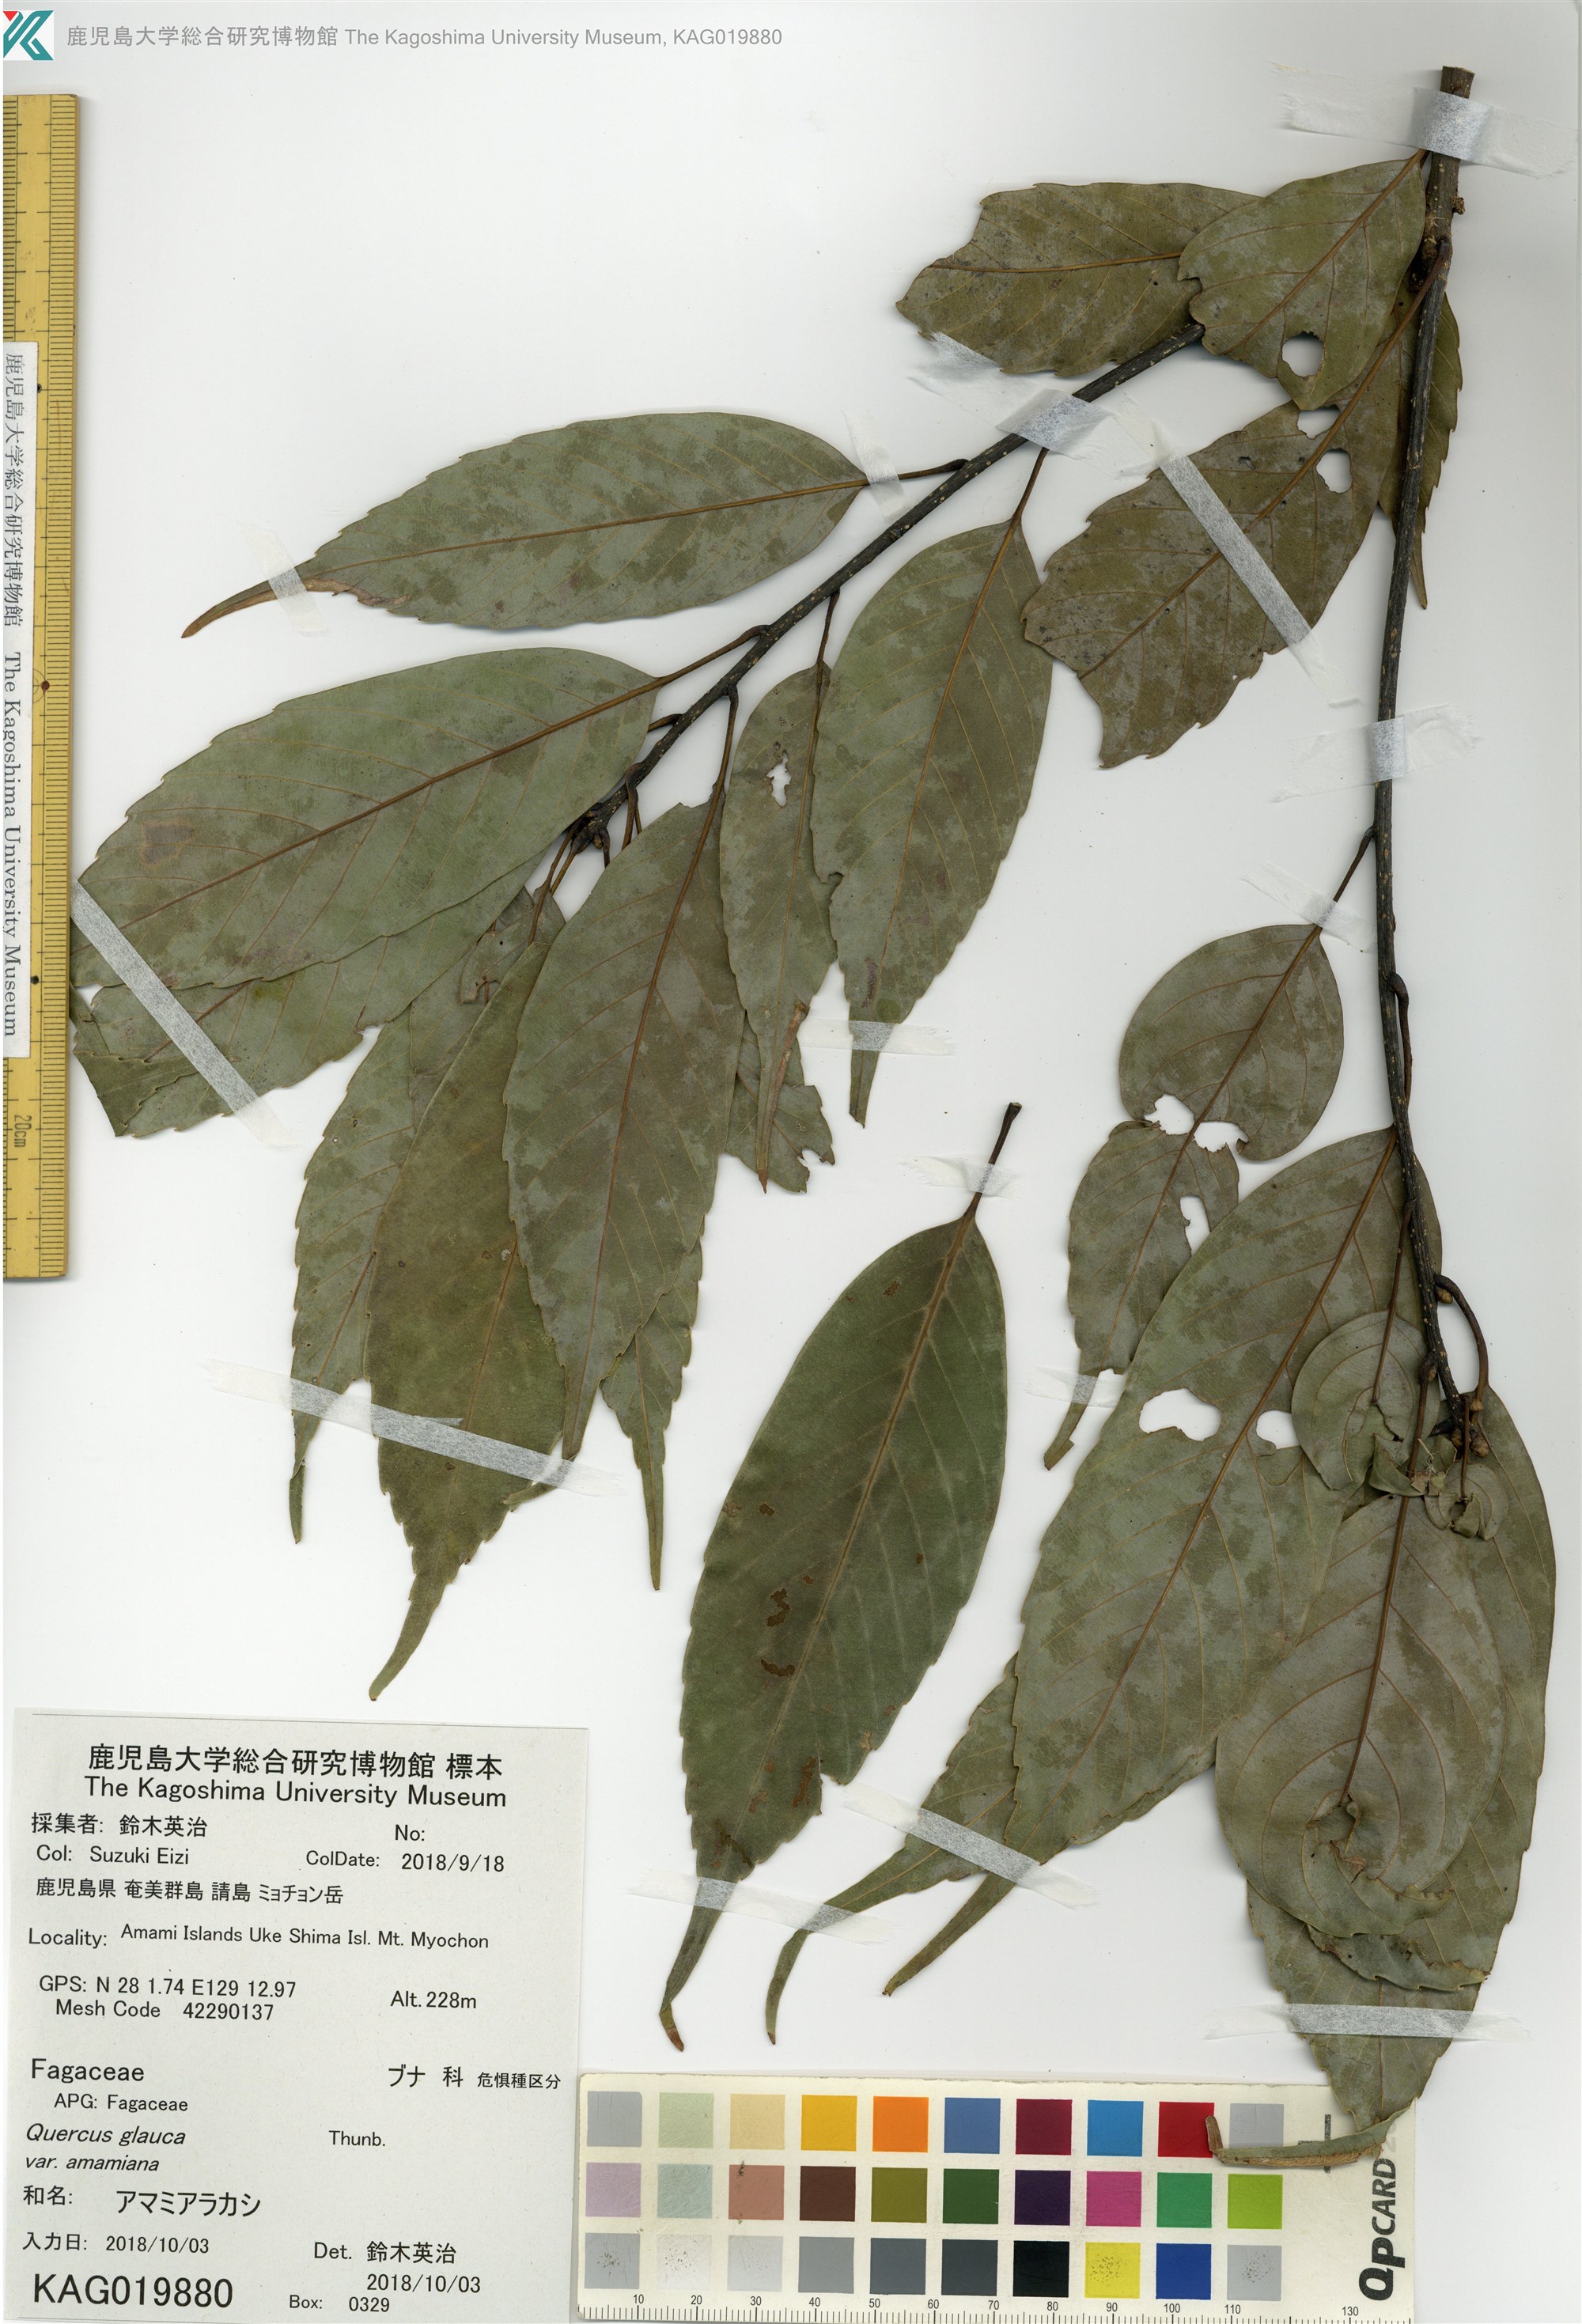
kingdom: Plantae
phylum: Tracheophyta
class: Magnoliopsida
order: Fagales
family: Fagaceae
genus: Quercus
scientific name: Quercus glauca
